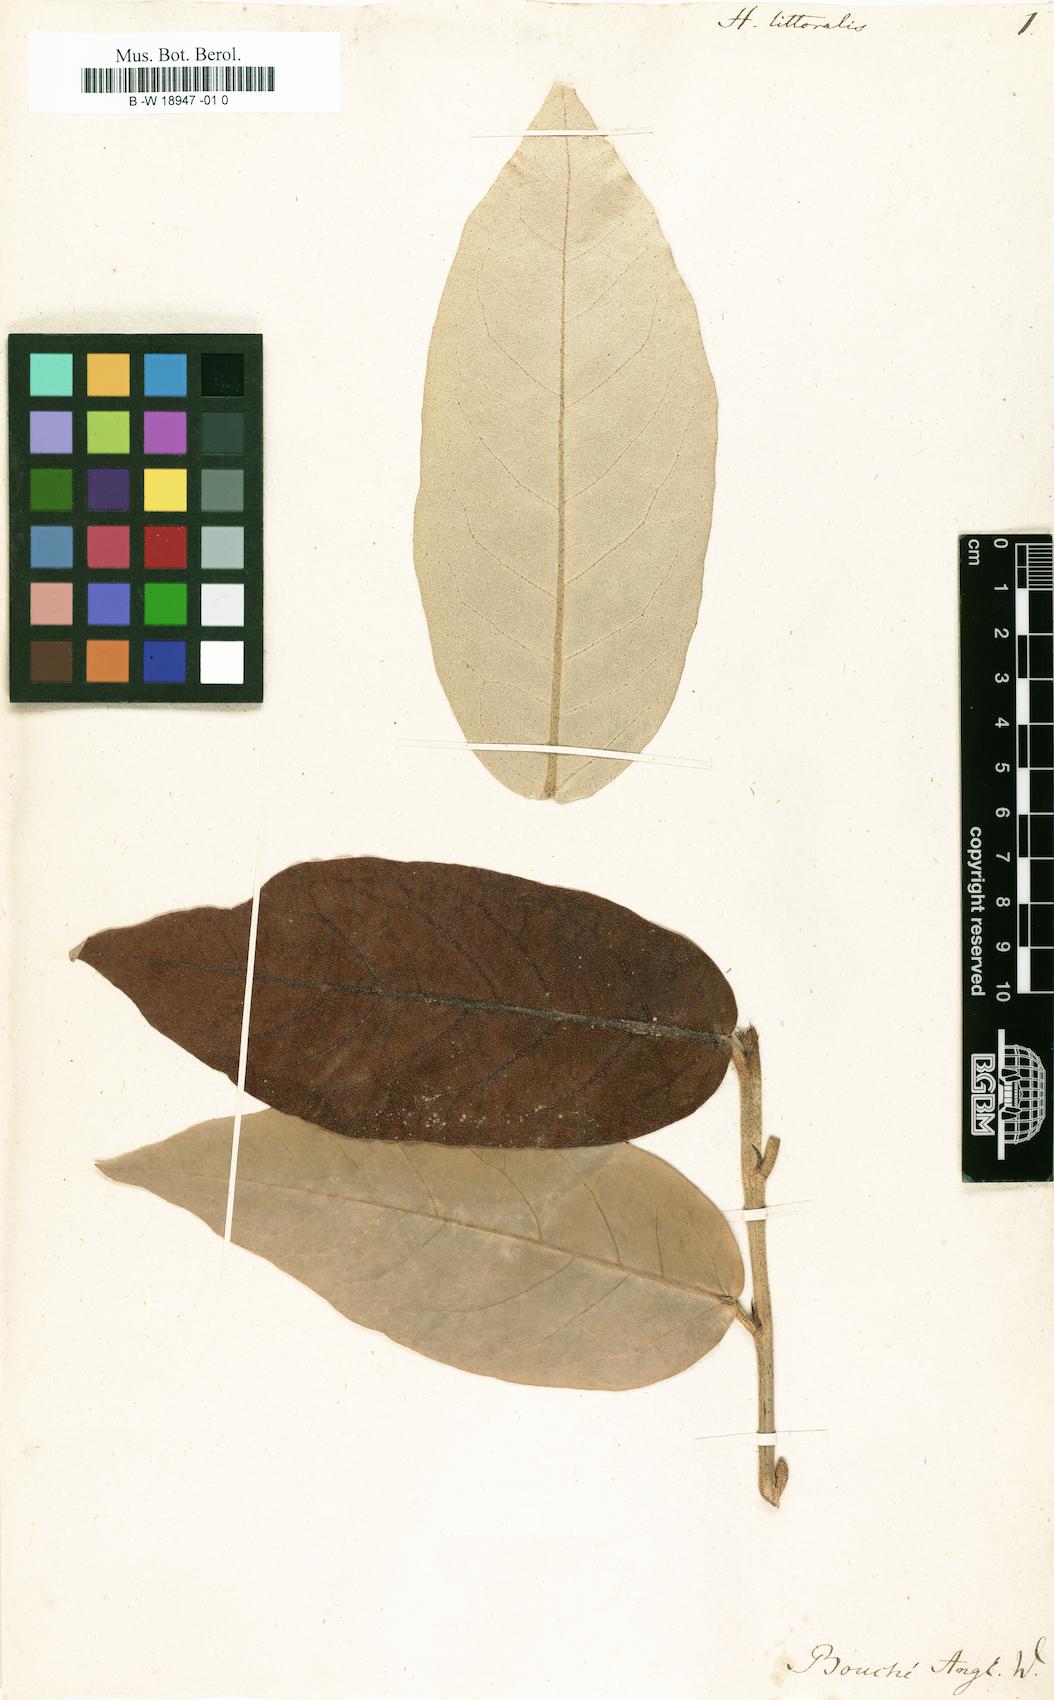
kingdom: Plantae
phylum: Tracheophyta
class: Magnoliopsida
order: Malvales
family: Malvaceae
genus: Heritiera
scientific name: Heritiera littoralis
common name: Looking-glass mangrove
